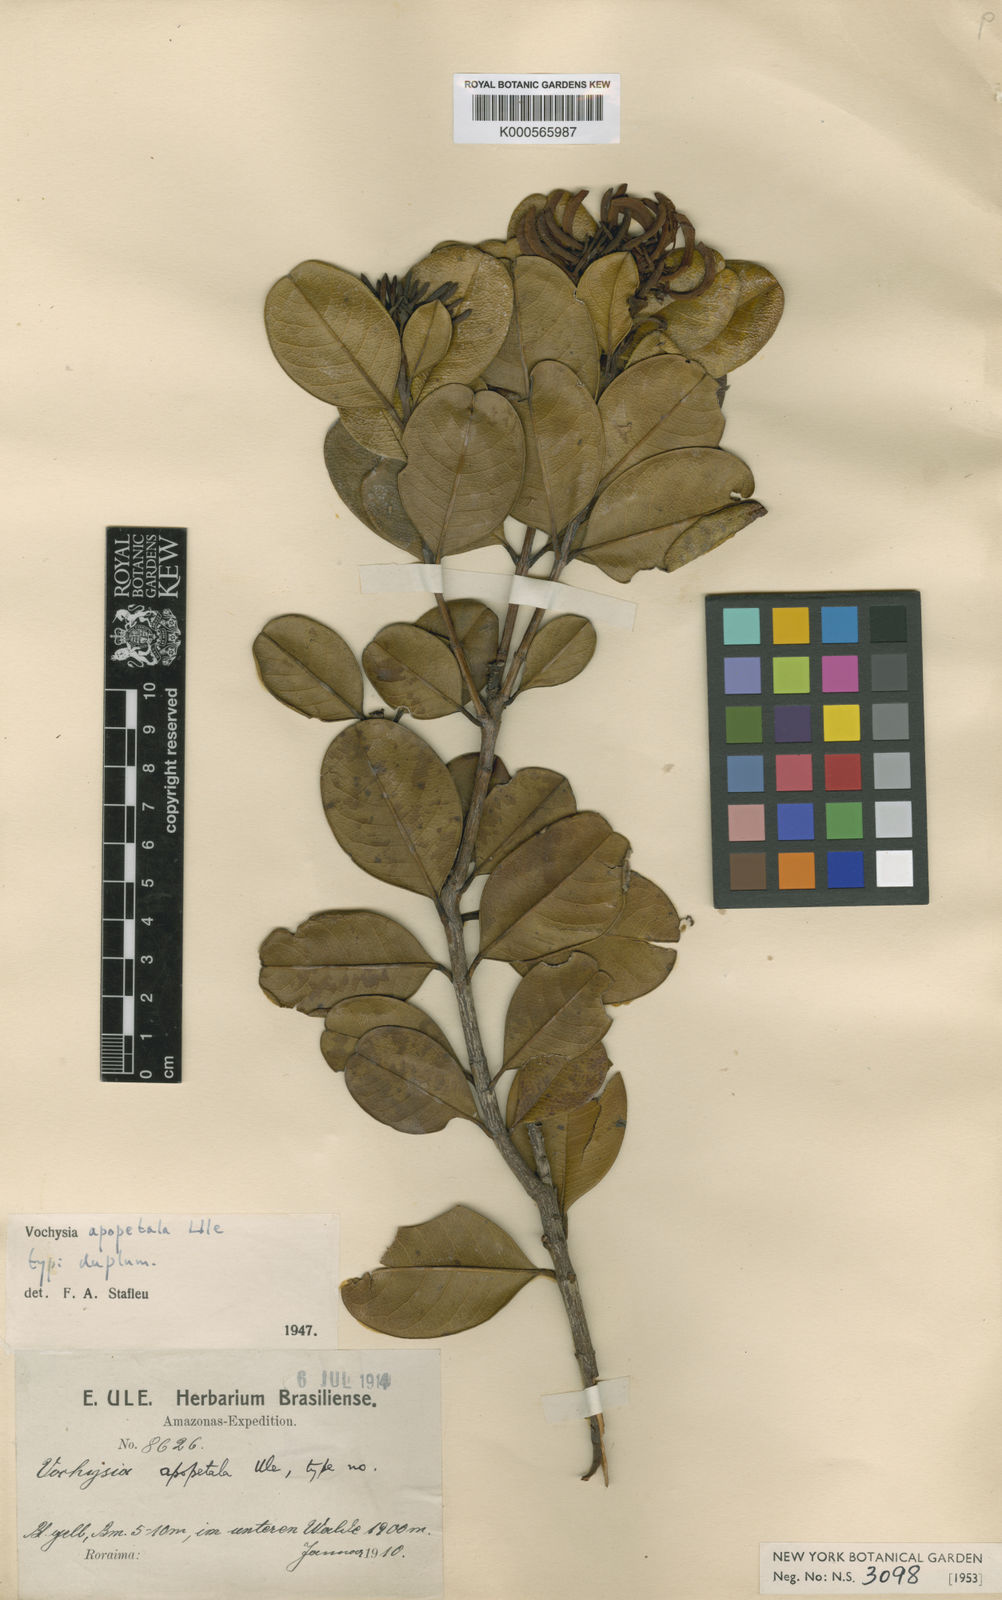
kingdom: Plantae
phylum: Tracheophyta
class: Magnoliopsida
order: Myrtales
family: Vochysiaceae
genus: Vochysia
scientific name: Vochysia apopetala
